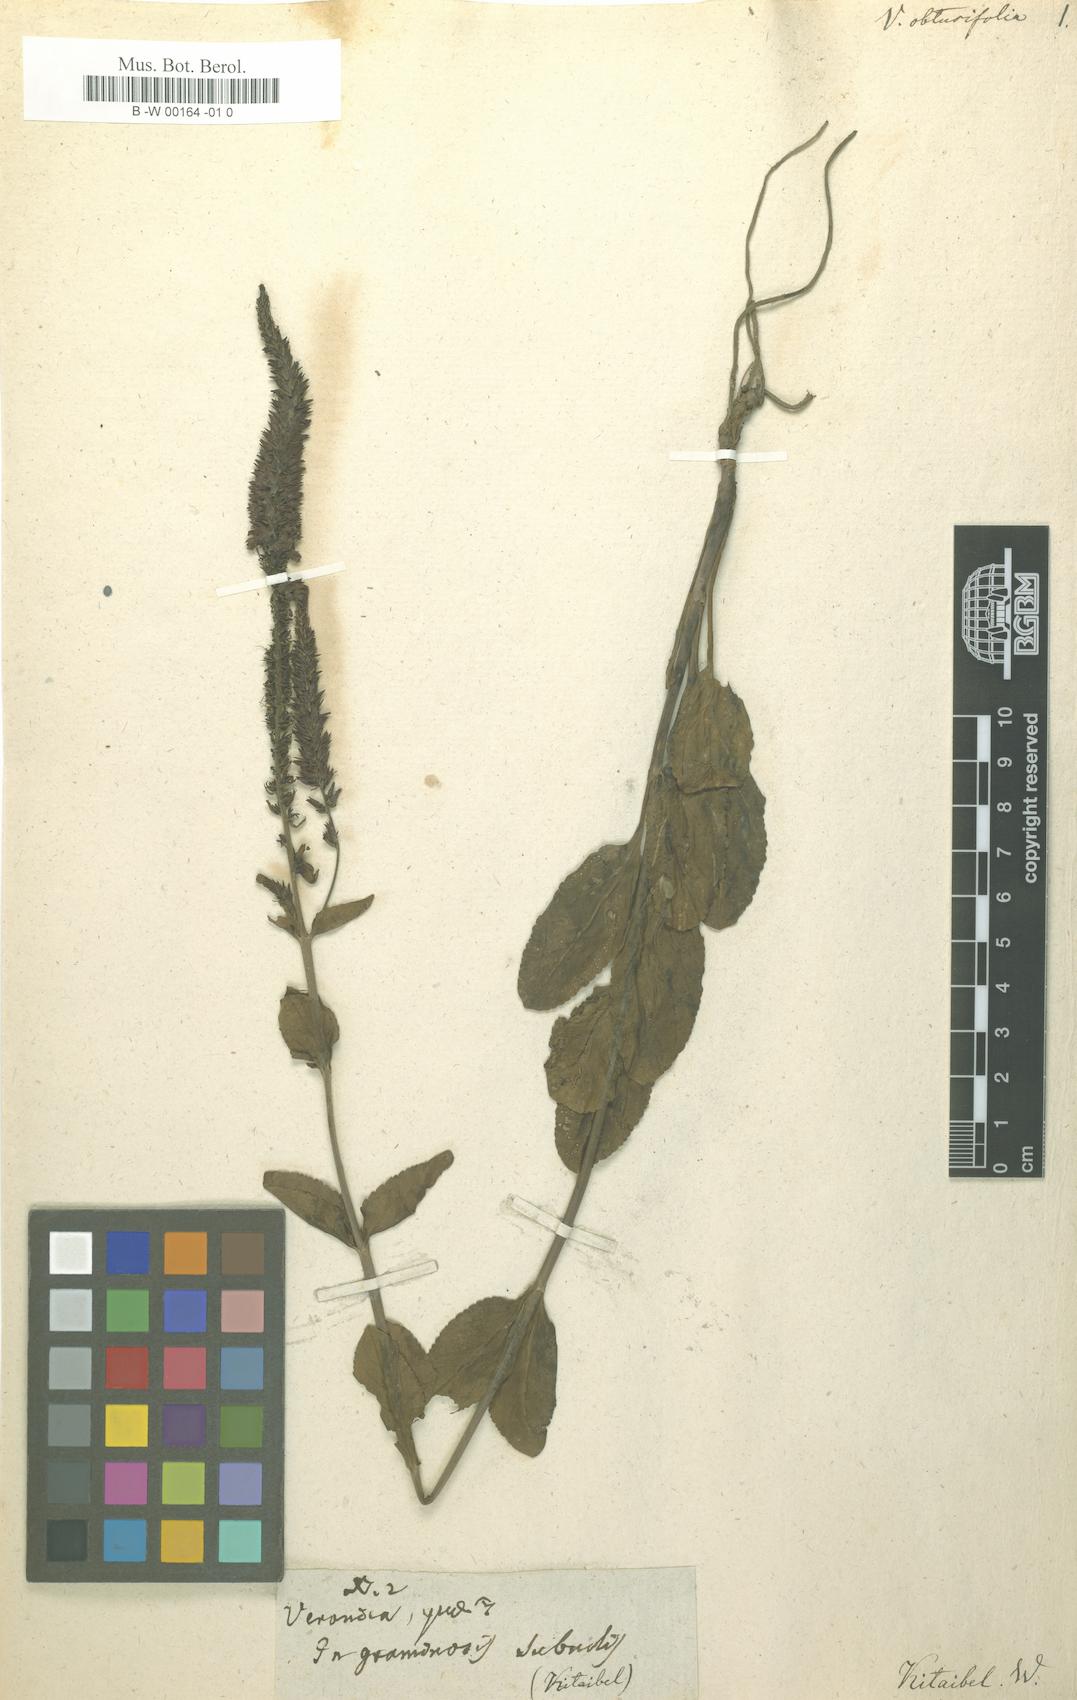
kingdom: Plantae
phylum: Tracheophyta
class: Magnoliopsida
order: Lamiales
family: Plantaginaceae
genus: Veronica
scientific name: Veronica
